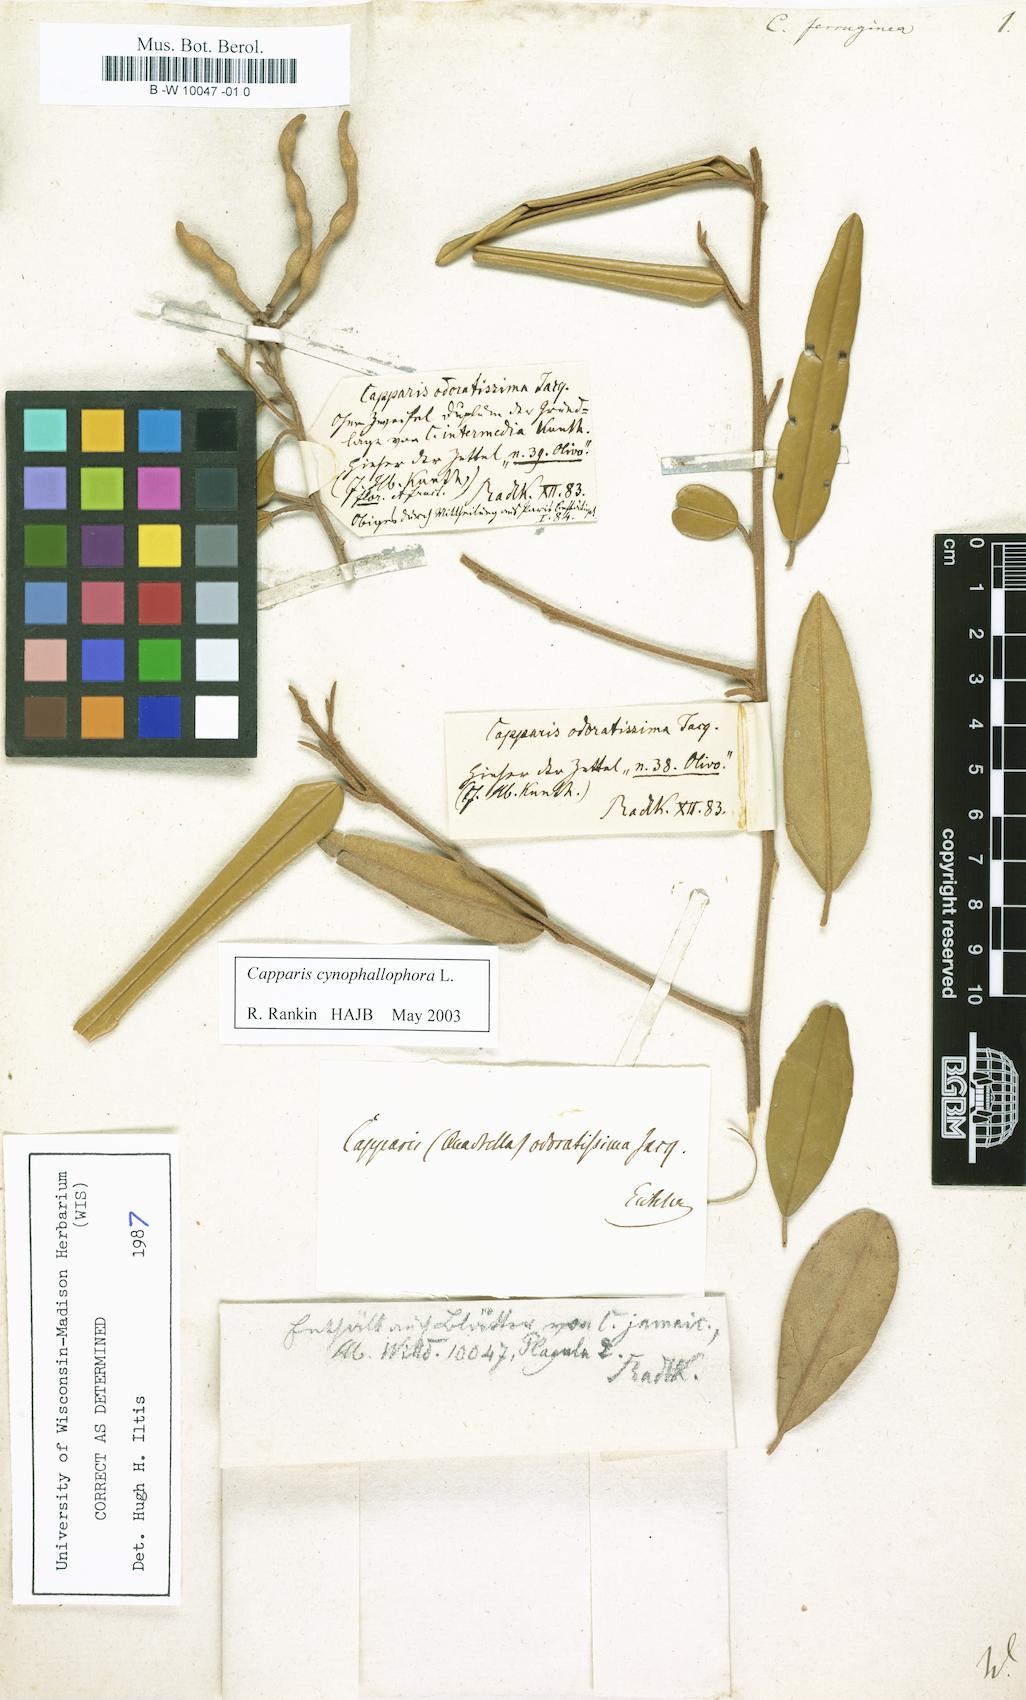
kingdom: Plantae
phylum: Tracheophyta
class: Magnoliopsida
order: Brassicales
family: Capparaceae
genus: Quadrella
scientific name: Quadrella ferruginea
